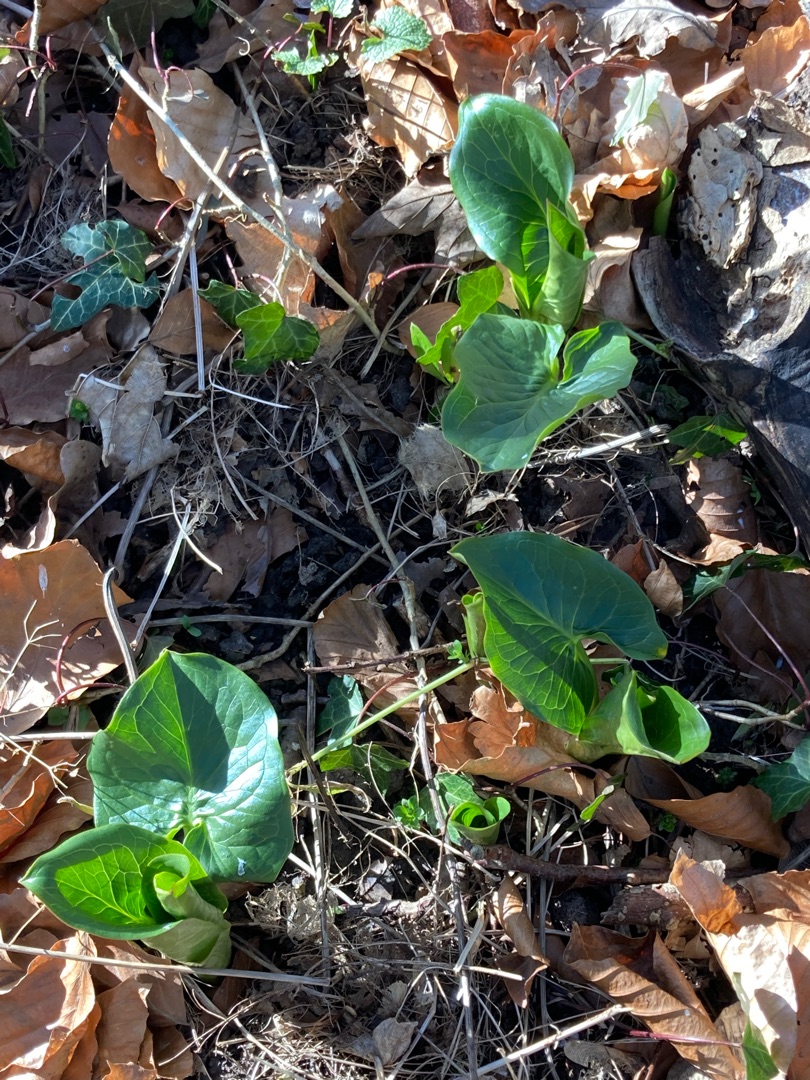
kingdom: Plantae
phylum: Tracheophyta
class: Liliopsida
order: Alismatales
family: Araceae
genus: Arum
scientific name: Arum
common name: Arumslægten
